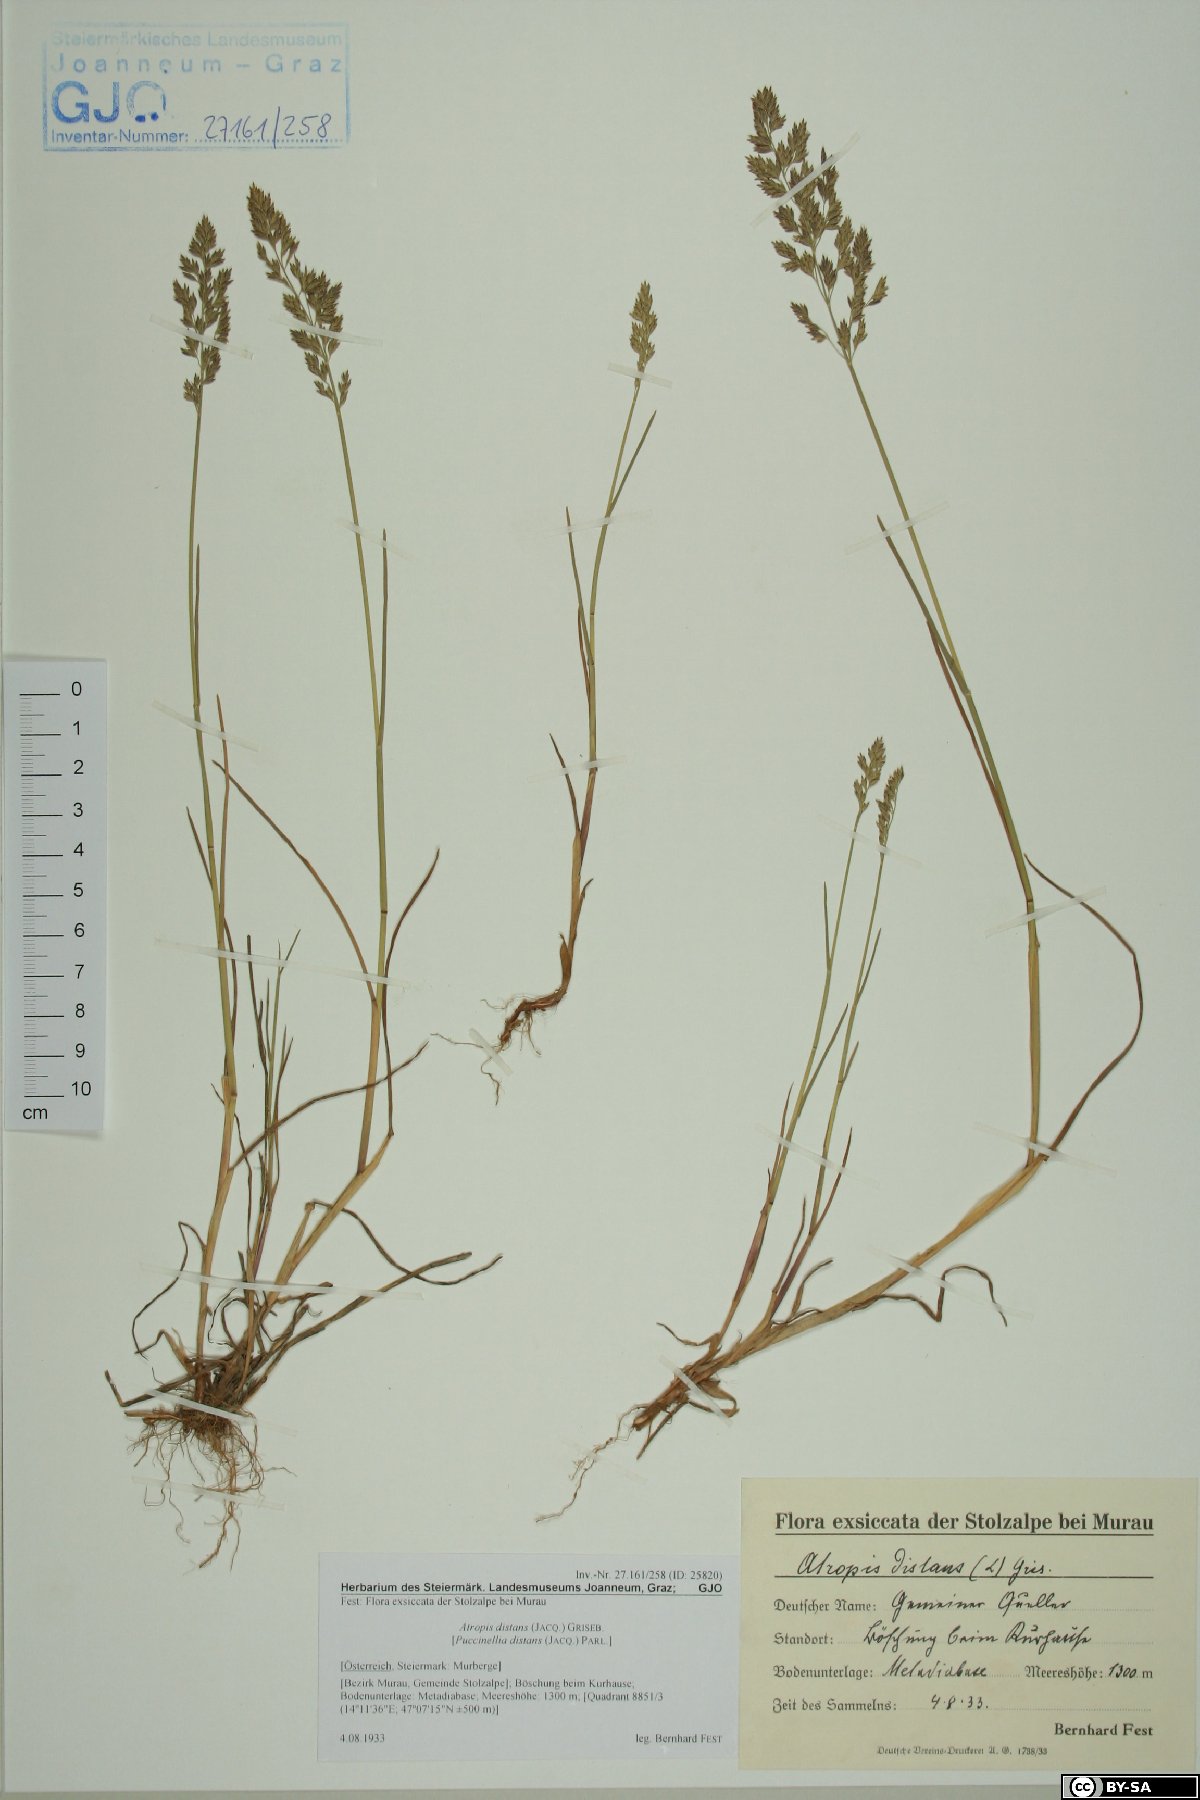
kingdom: Plantae
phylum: Tracheophyta
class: Liliopsida
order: Poales
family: Poaceae
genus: Puccinellia
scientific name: Puccinellia distans
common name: Weeping alkaligrass
